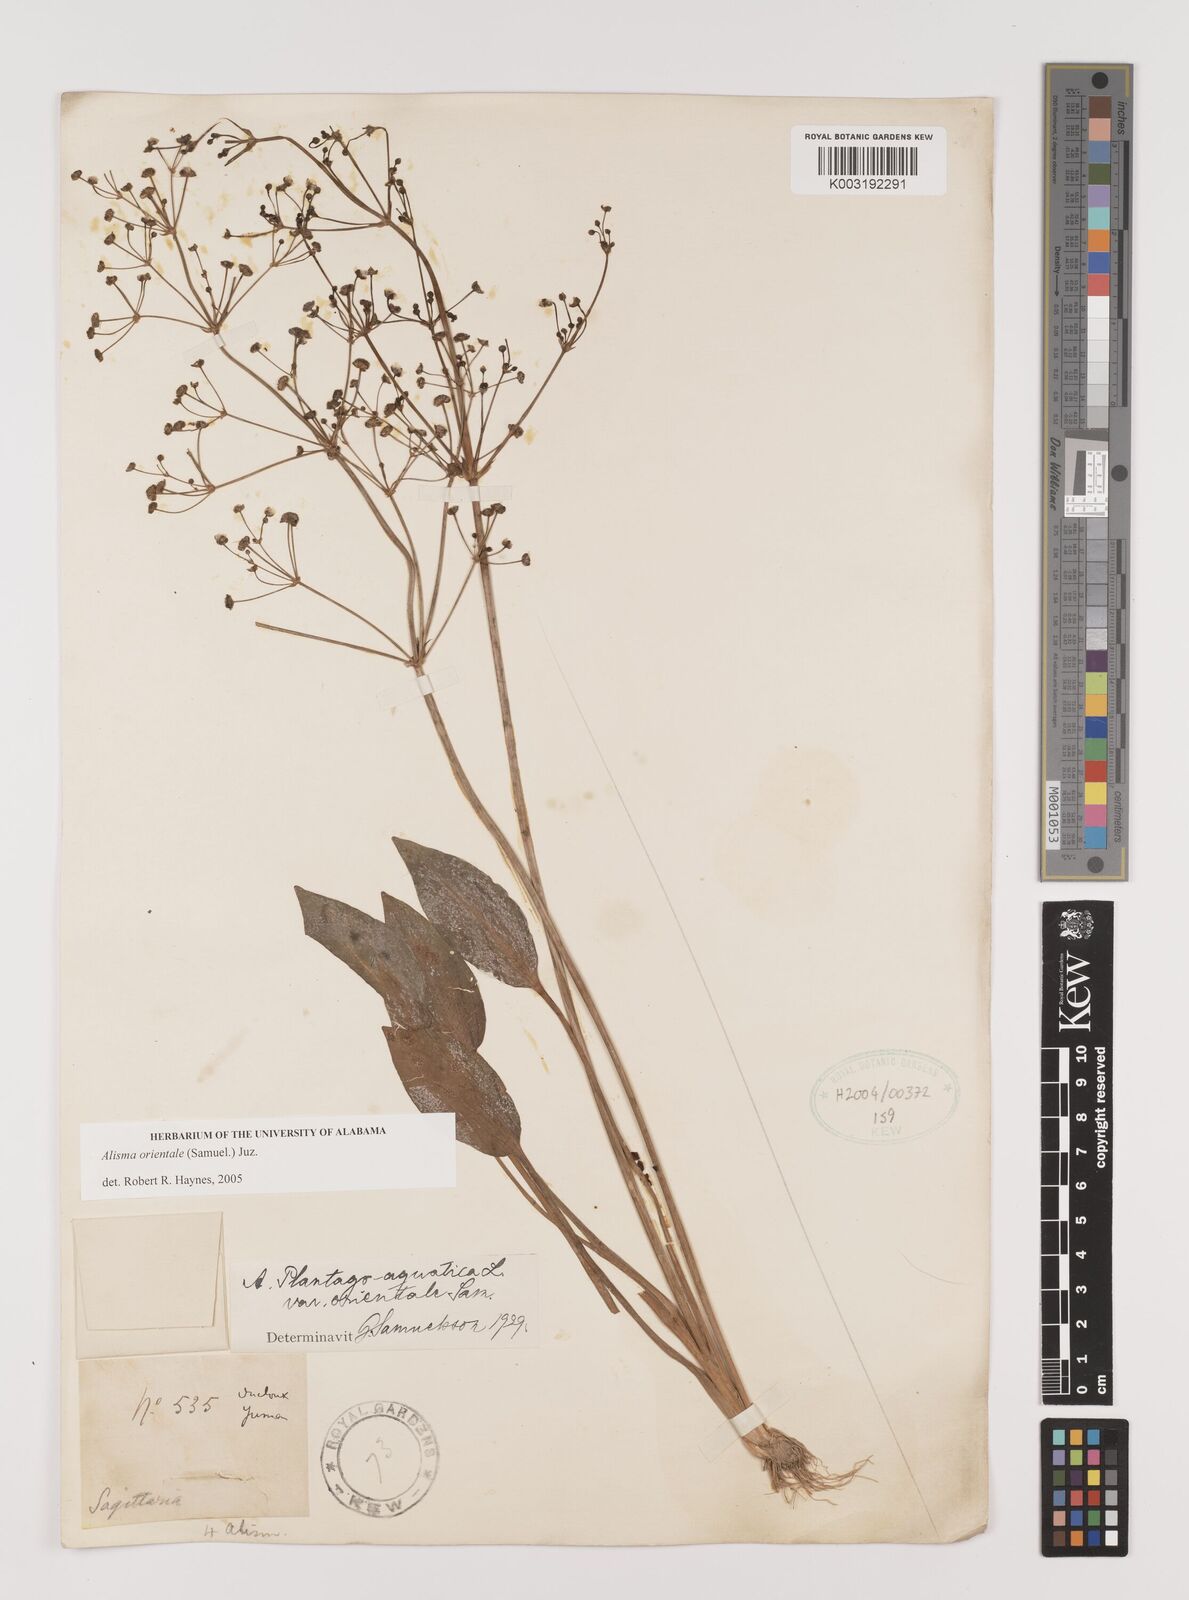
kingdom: Plantae
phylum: Tracheophyta
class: Liliopsida
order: Alismatales
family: Alismataceae
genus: Alisma
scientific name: Alisma plantago-aquatica
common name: Water-plantain
